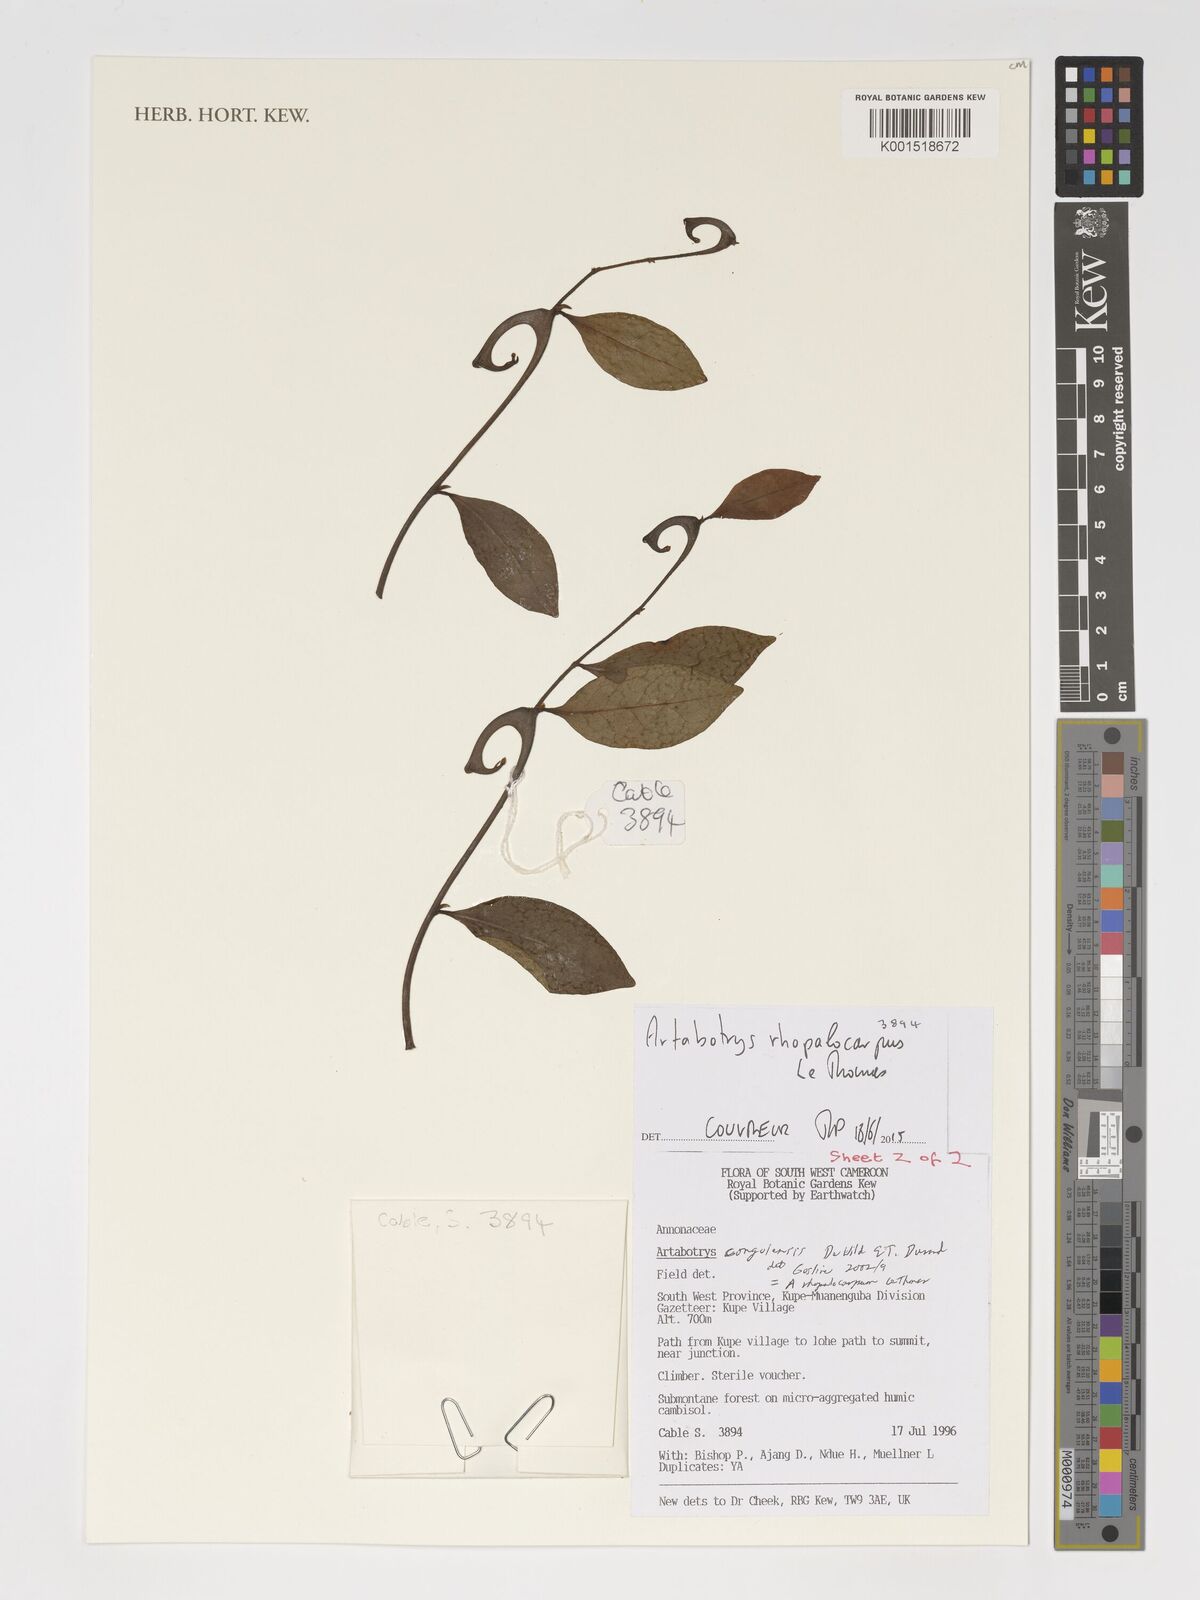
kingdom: Plantae
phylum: Tracheophyta
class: Magnoliopsida
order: Magnoliales
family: Annonaceae
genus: Artabotrys
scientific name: Artabotrys congolensis
